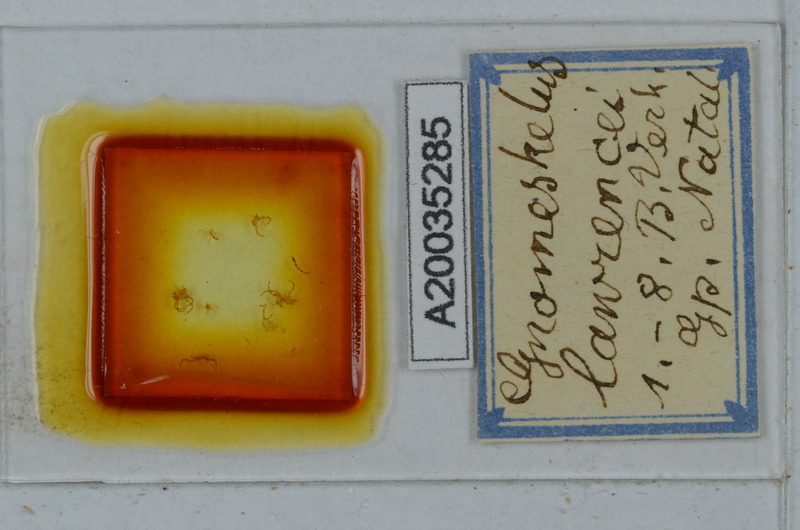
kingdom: Animalia
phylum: Arthropoda
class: Diplopoda
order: Polydesmida
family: Dalodesmidae
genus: Gnomeskelus
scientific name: Gnomeskelus lawrencei
